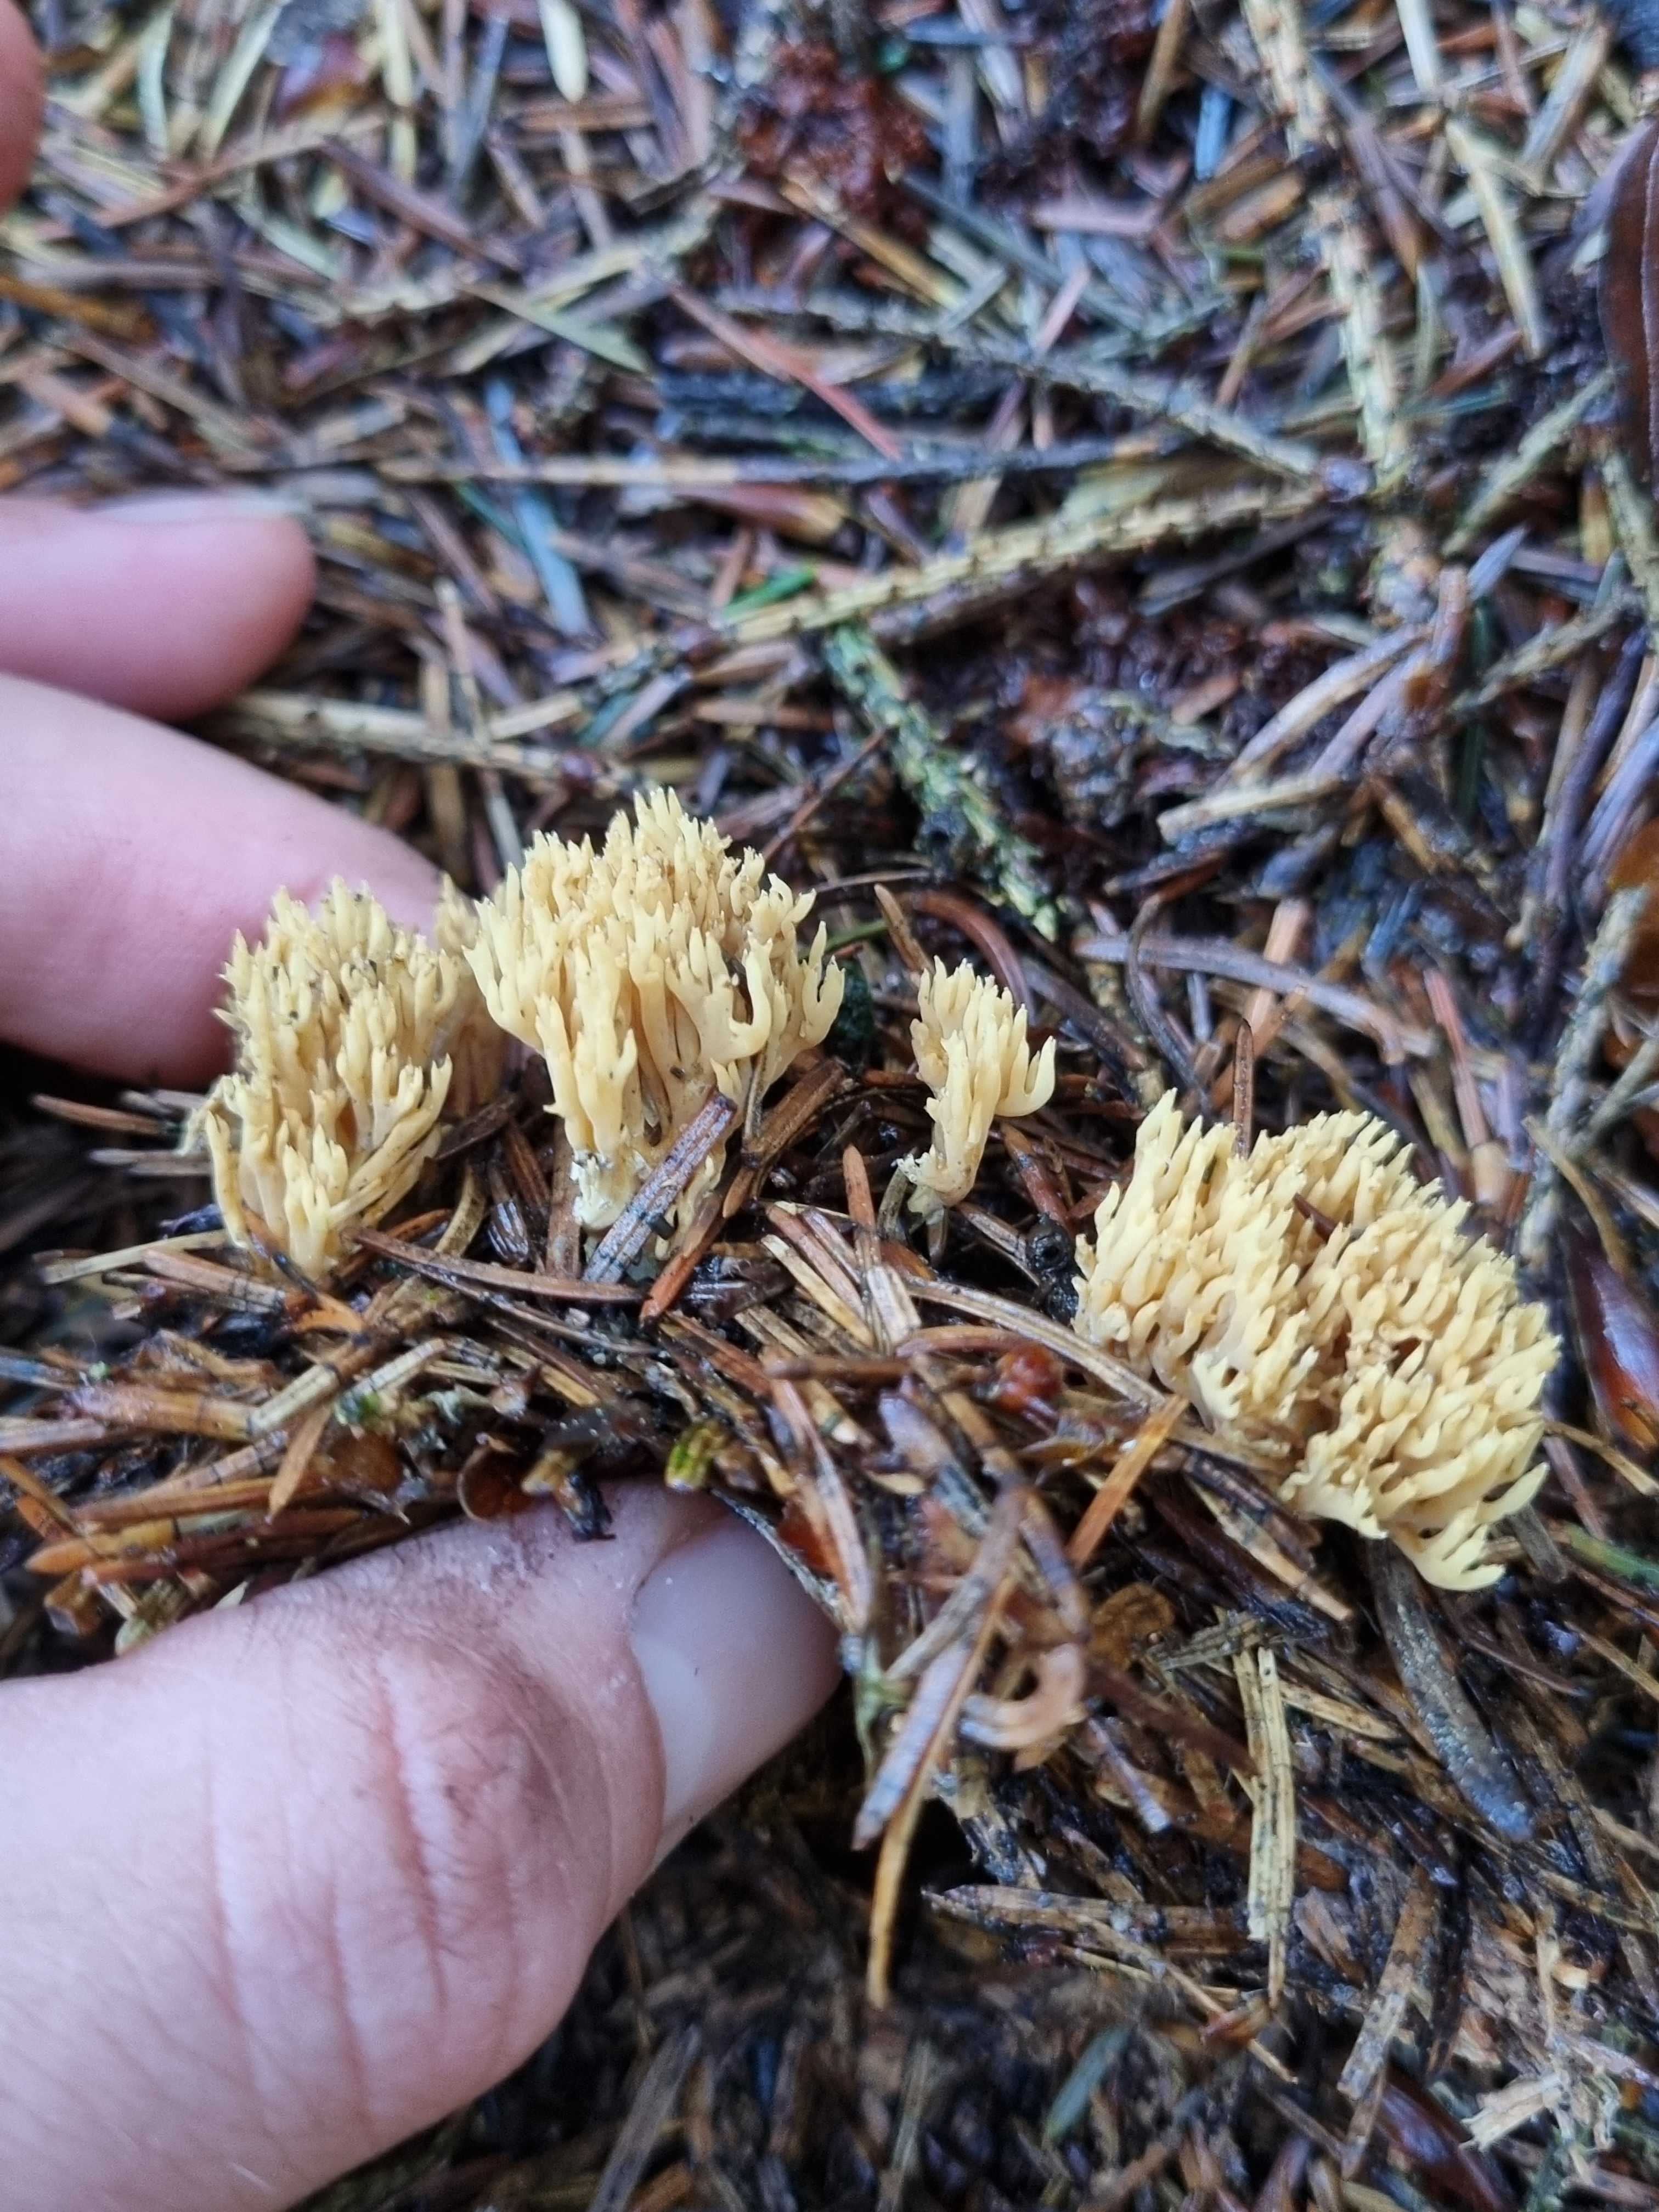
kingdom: Fungi
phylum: Basidiomycota
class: Agaricomycetes
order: Gomphales
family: Gomphaceae
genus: Phaeoclavulina
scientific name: Phaeoclavulina eumorpha
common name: gran-koralsvamp
